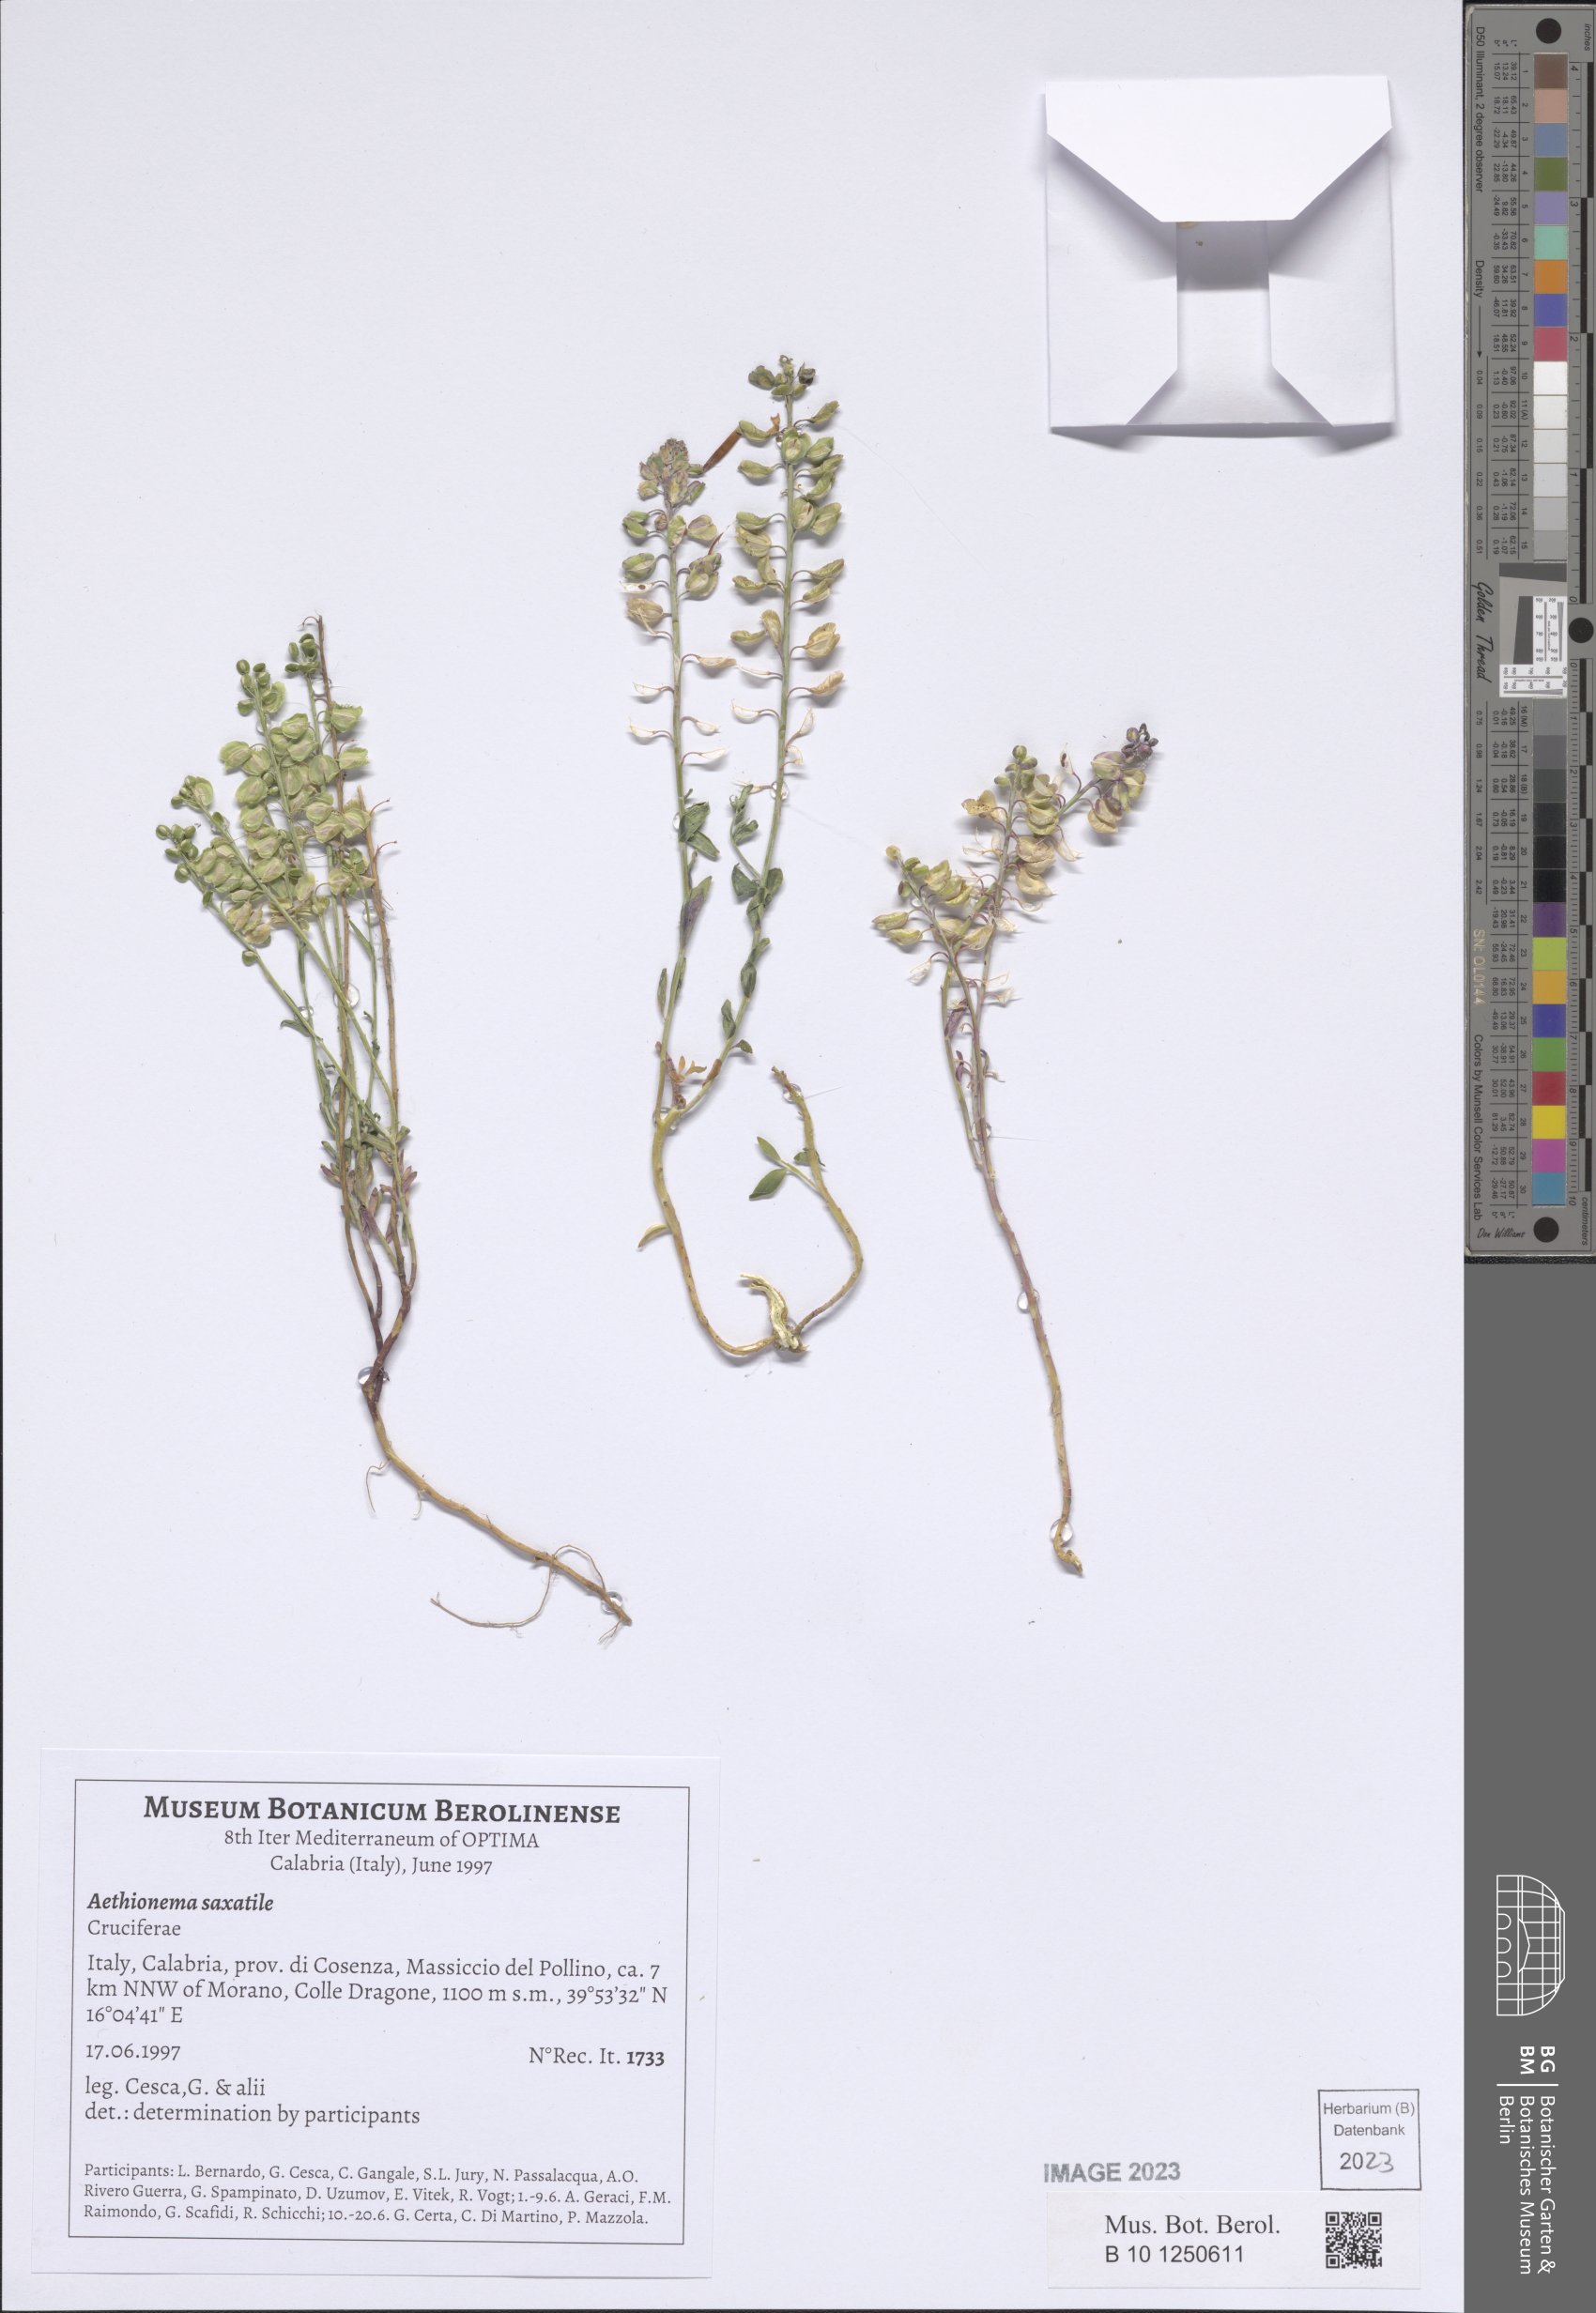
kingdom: Plantae
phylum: Tracheophyta
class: Magnoliopsida
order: Brassicales
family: Brassicaceae
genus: Aethionema
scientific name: Aethionema saxatile
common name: Burnt candytuft
